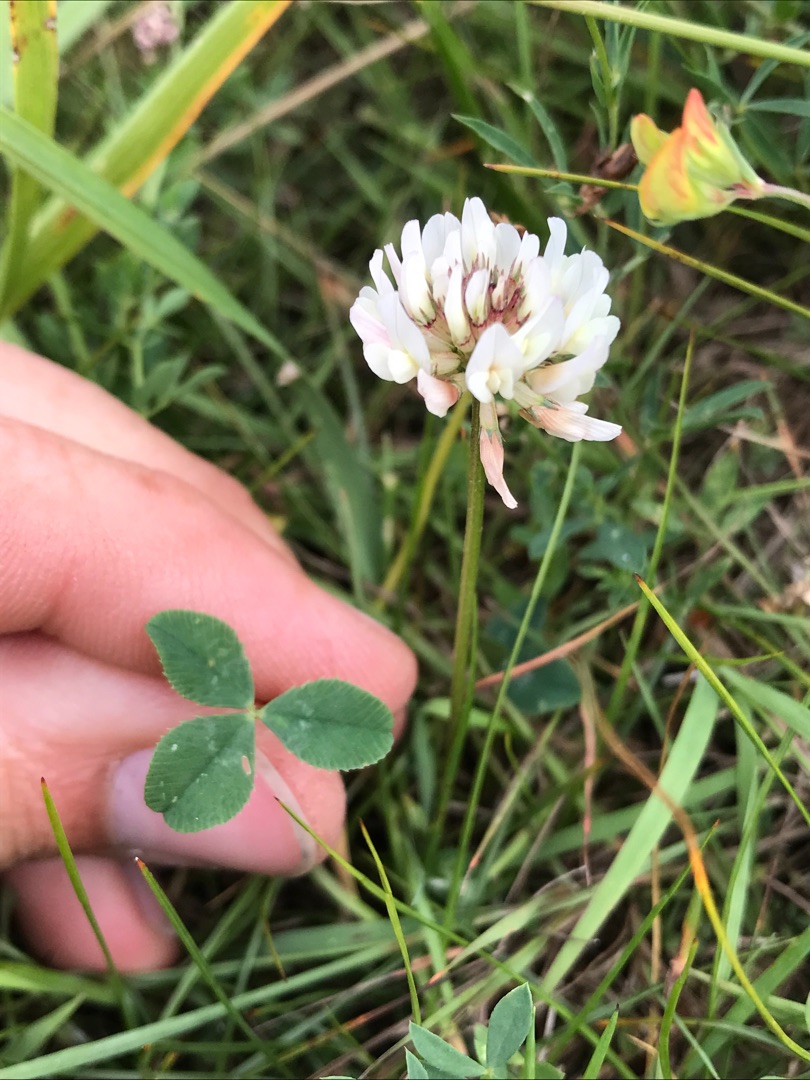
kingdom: Plantae
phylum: Tracheophyta
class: Magnoliopsida
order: Fabales
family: Fabaceae
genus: Trifolium
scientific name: Trifolium repens
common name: Hvid-kløver
